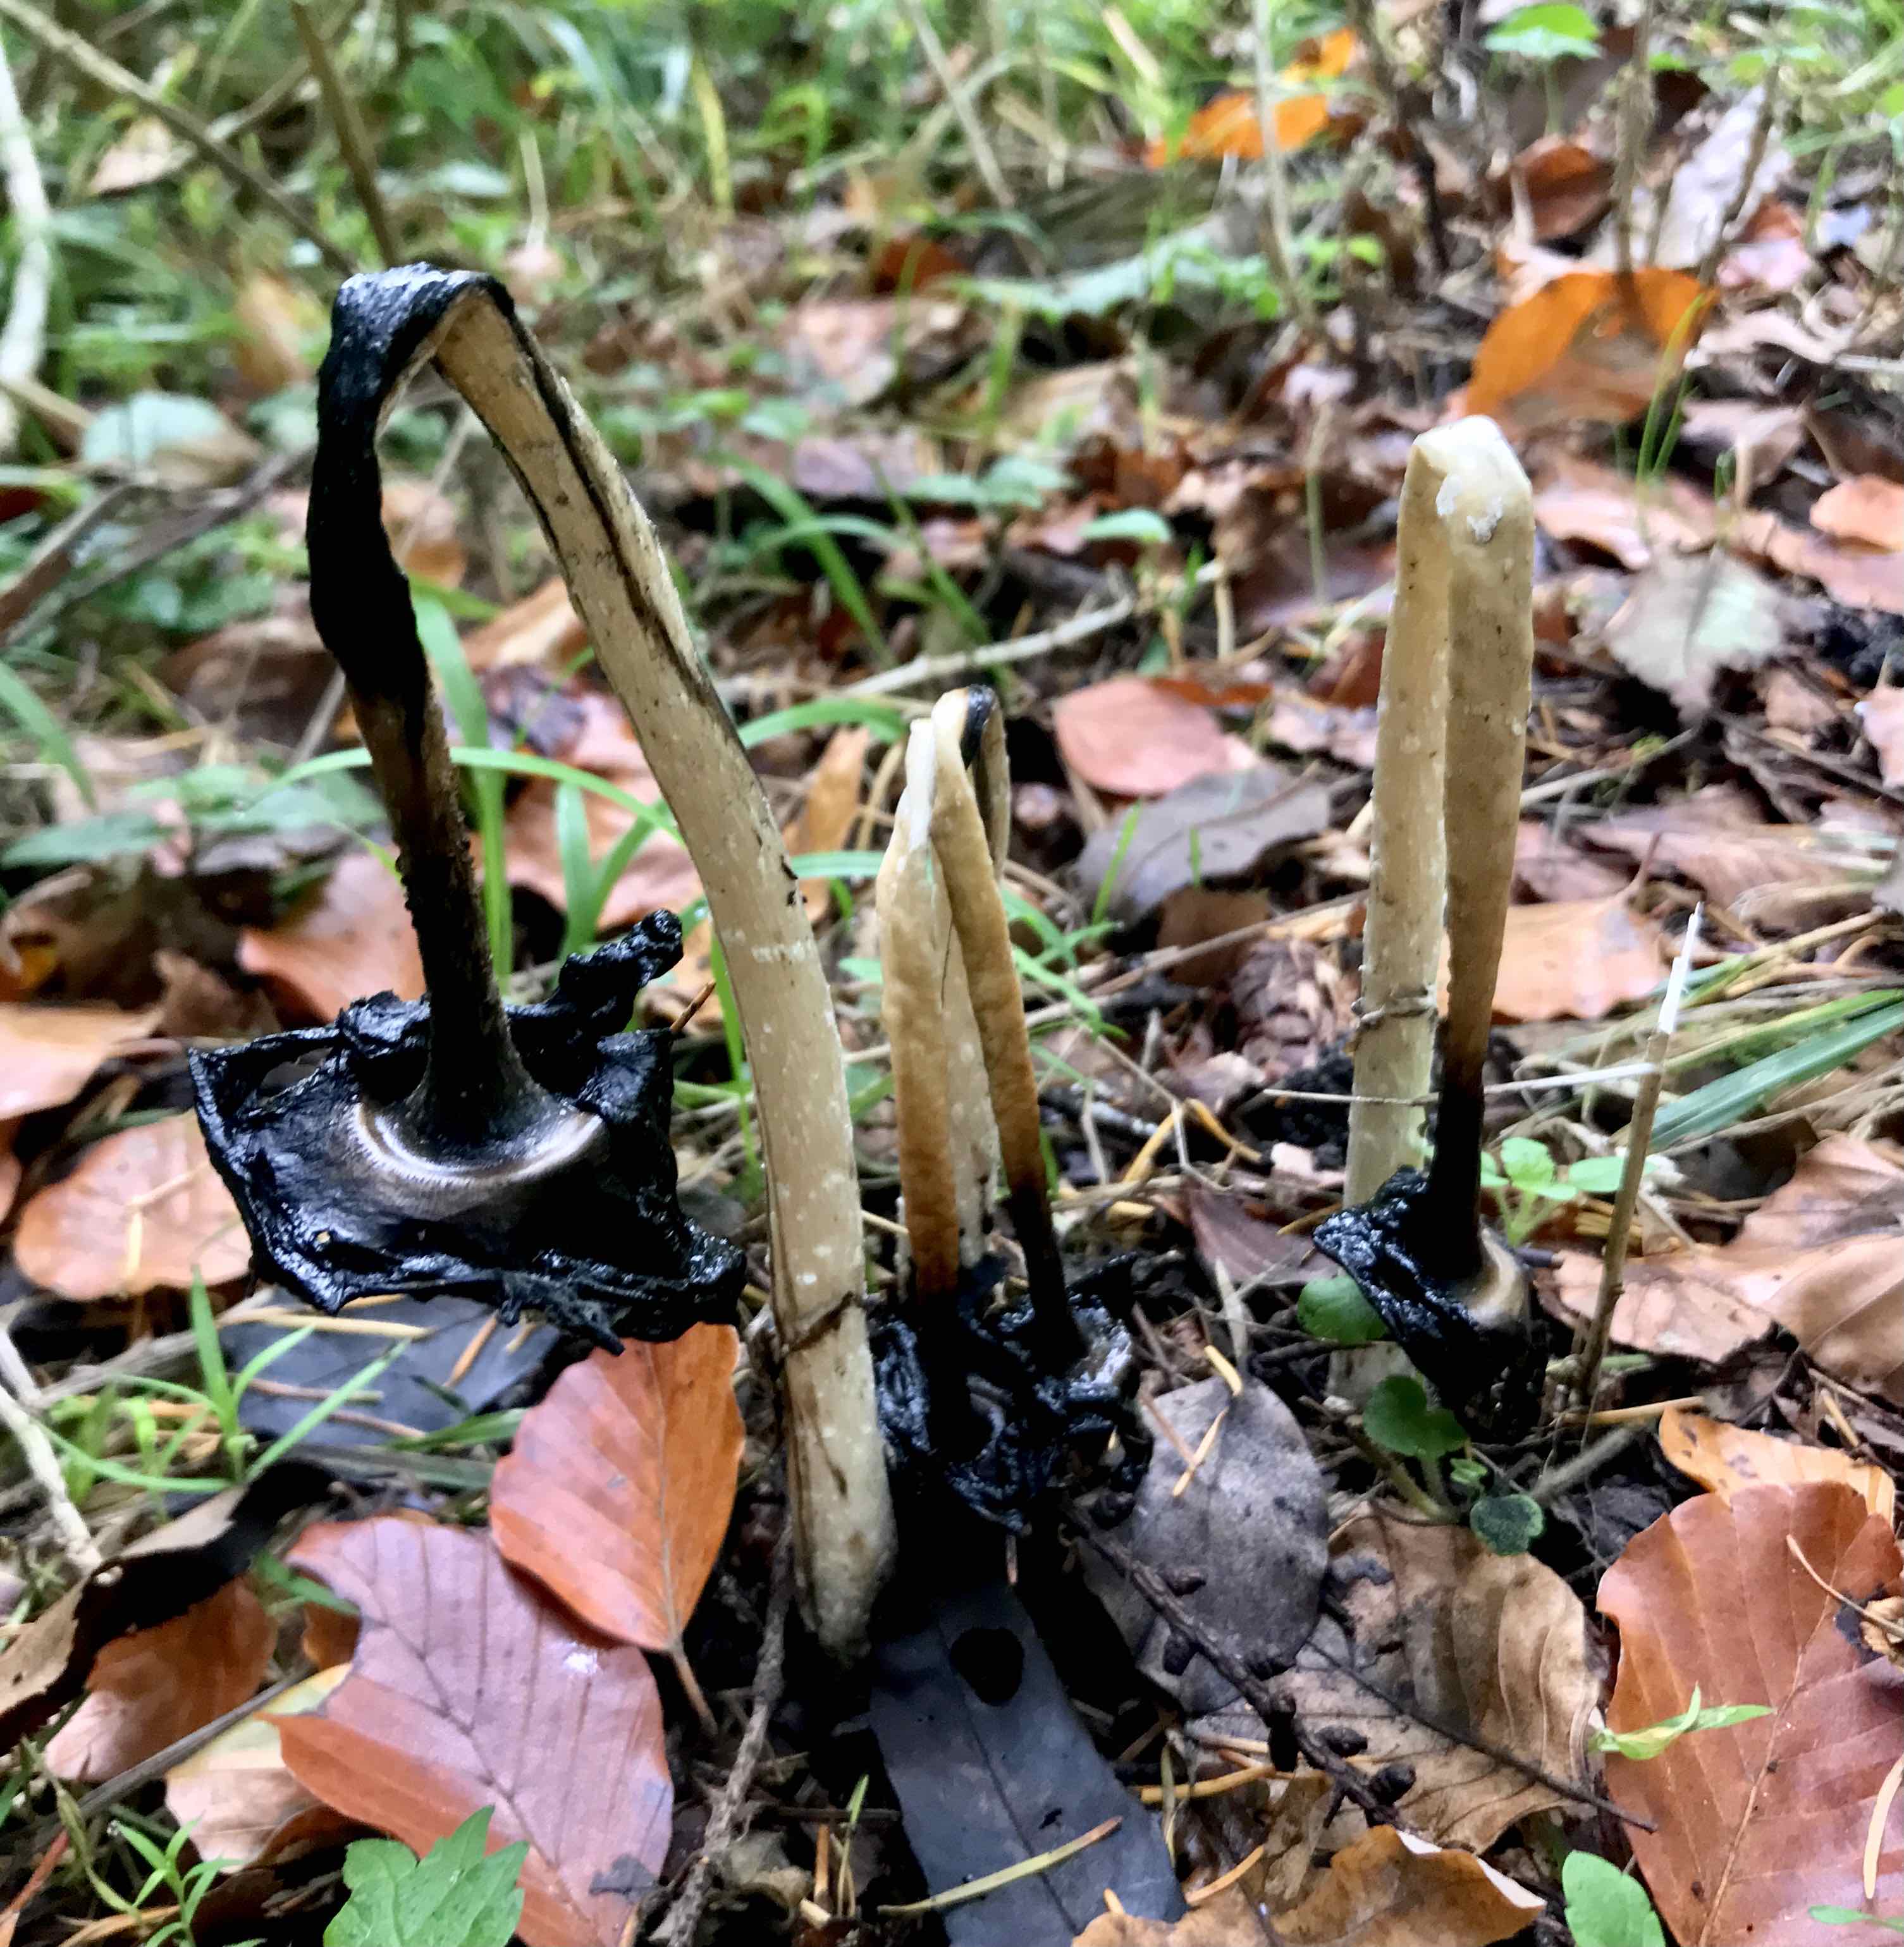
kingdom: Fungi
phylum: Basidiomycota
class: Agaricomycetes
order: Agaricales
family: Agaricaceae
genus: Coprinus
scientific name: Coprinus comatus
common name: stor parykhat
